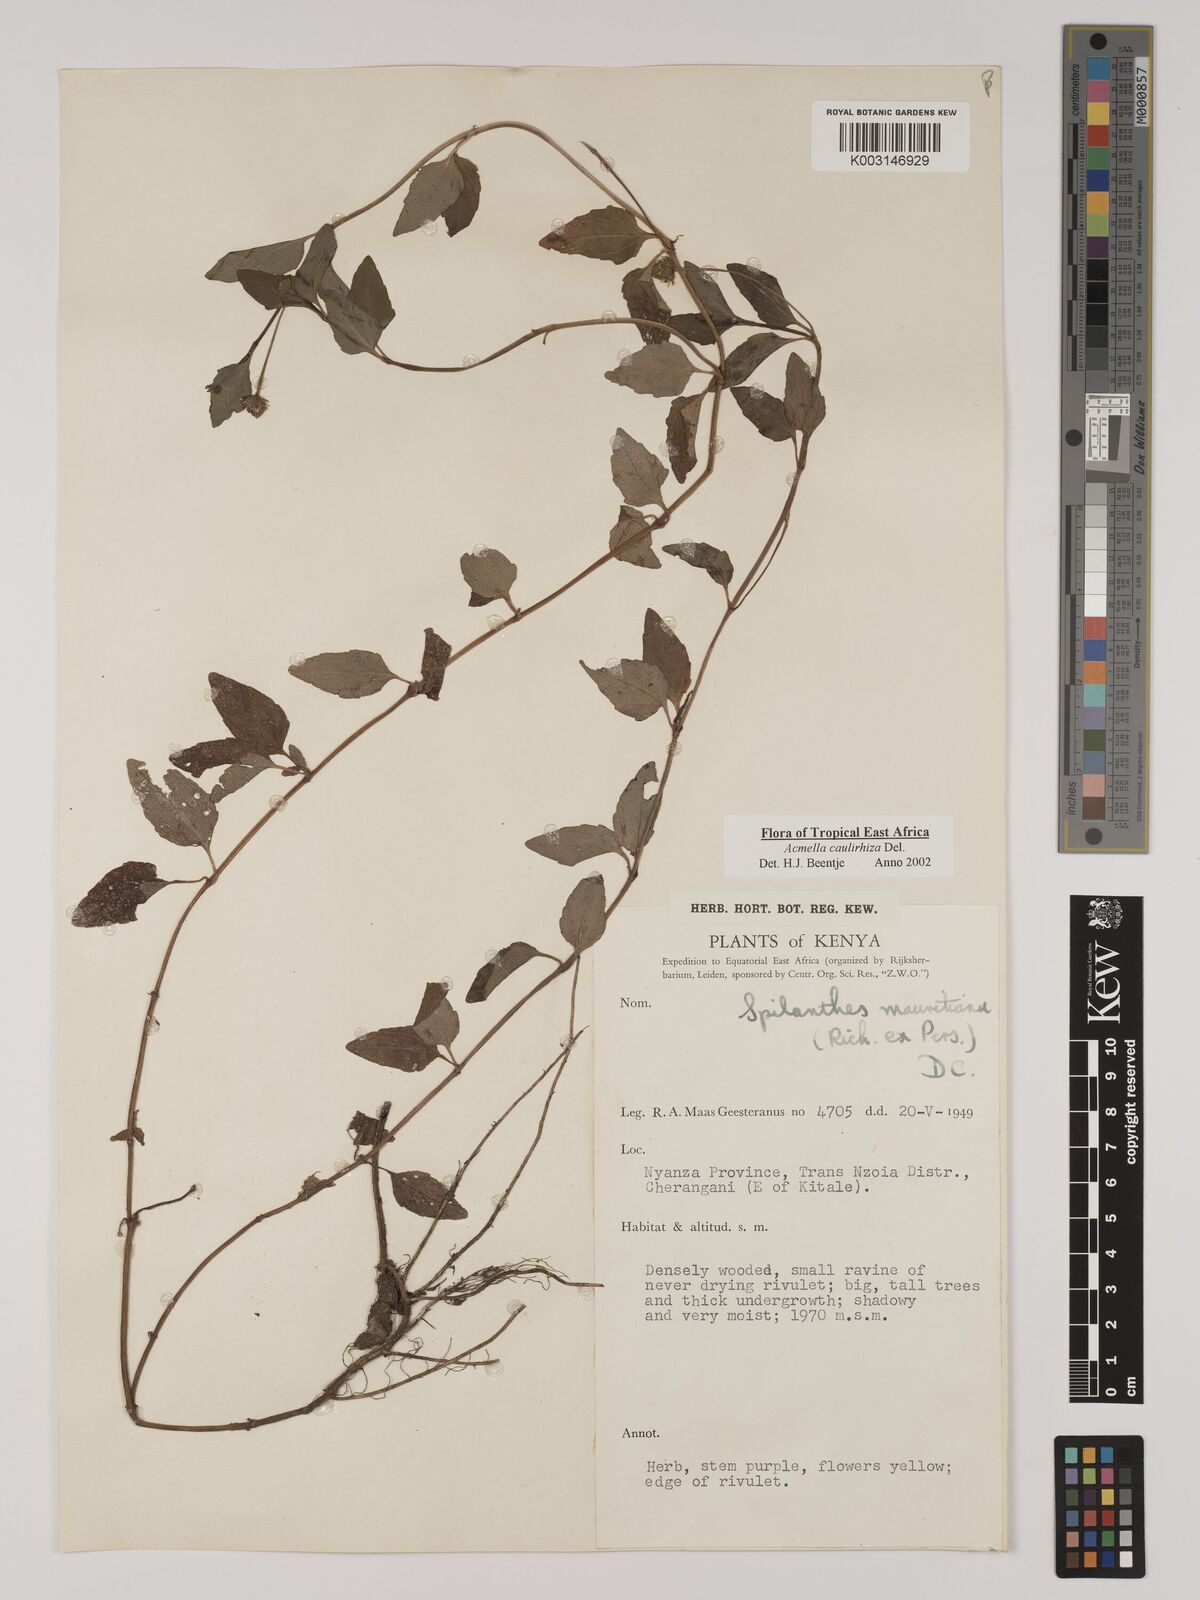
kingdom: Plantae
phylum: Tracheophyta
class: Magnoliopsida
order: Asterales
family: Asteraceae
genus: Acmella
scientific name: Acmella caulirhiza
